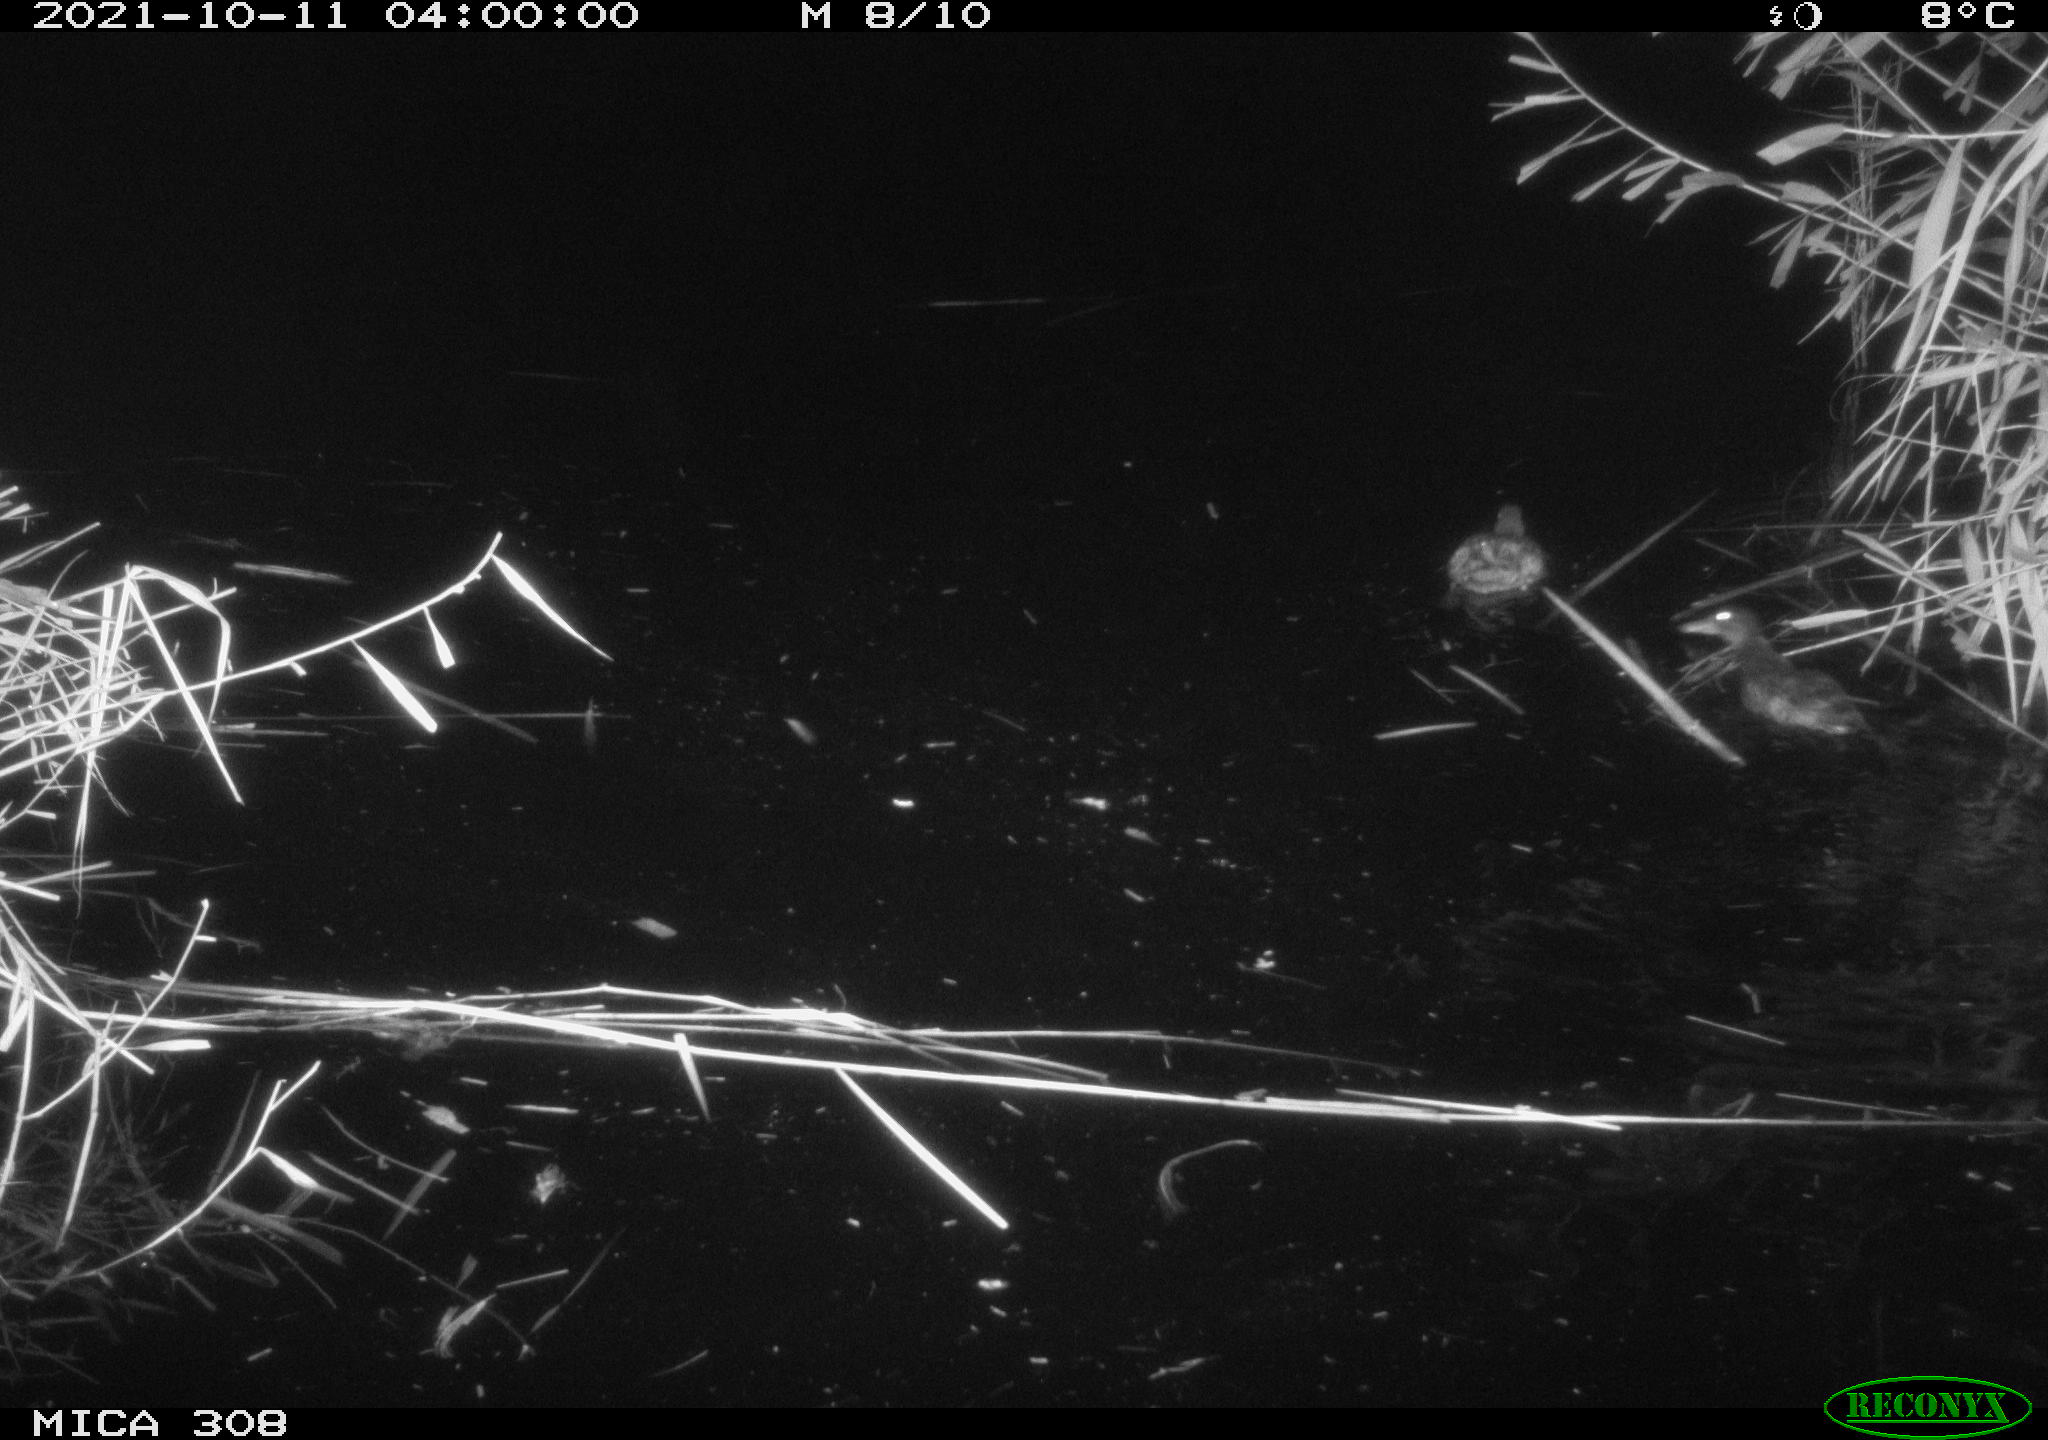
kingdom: Animalia
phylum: Chordata
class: Aves
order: Anseriformes
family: Anatidae
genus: Spatula
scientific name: Spatula clypeata
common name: Northern shoveler
